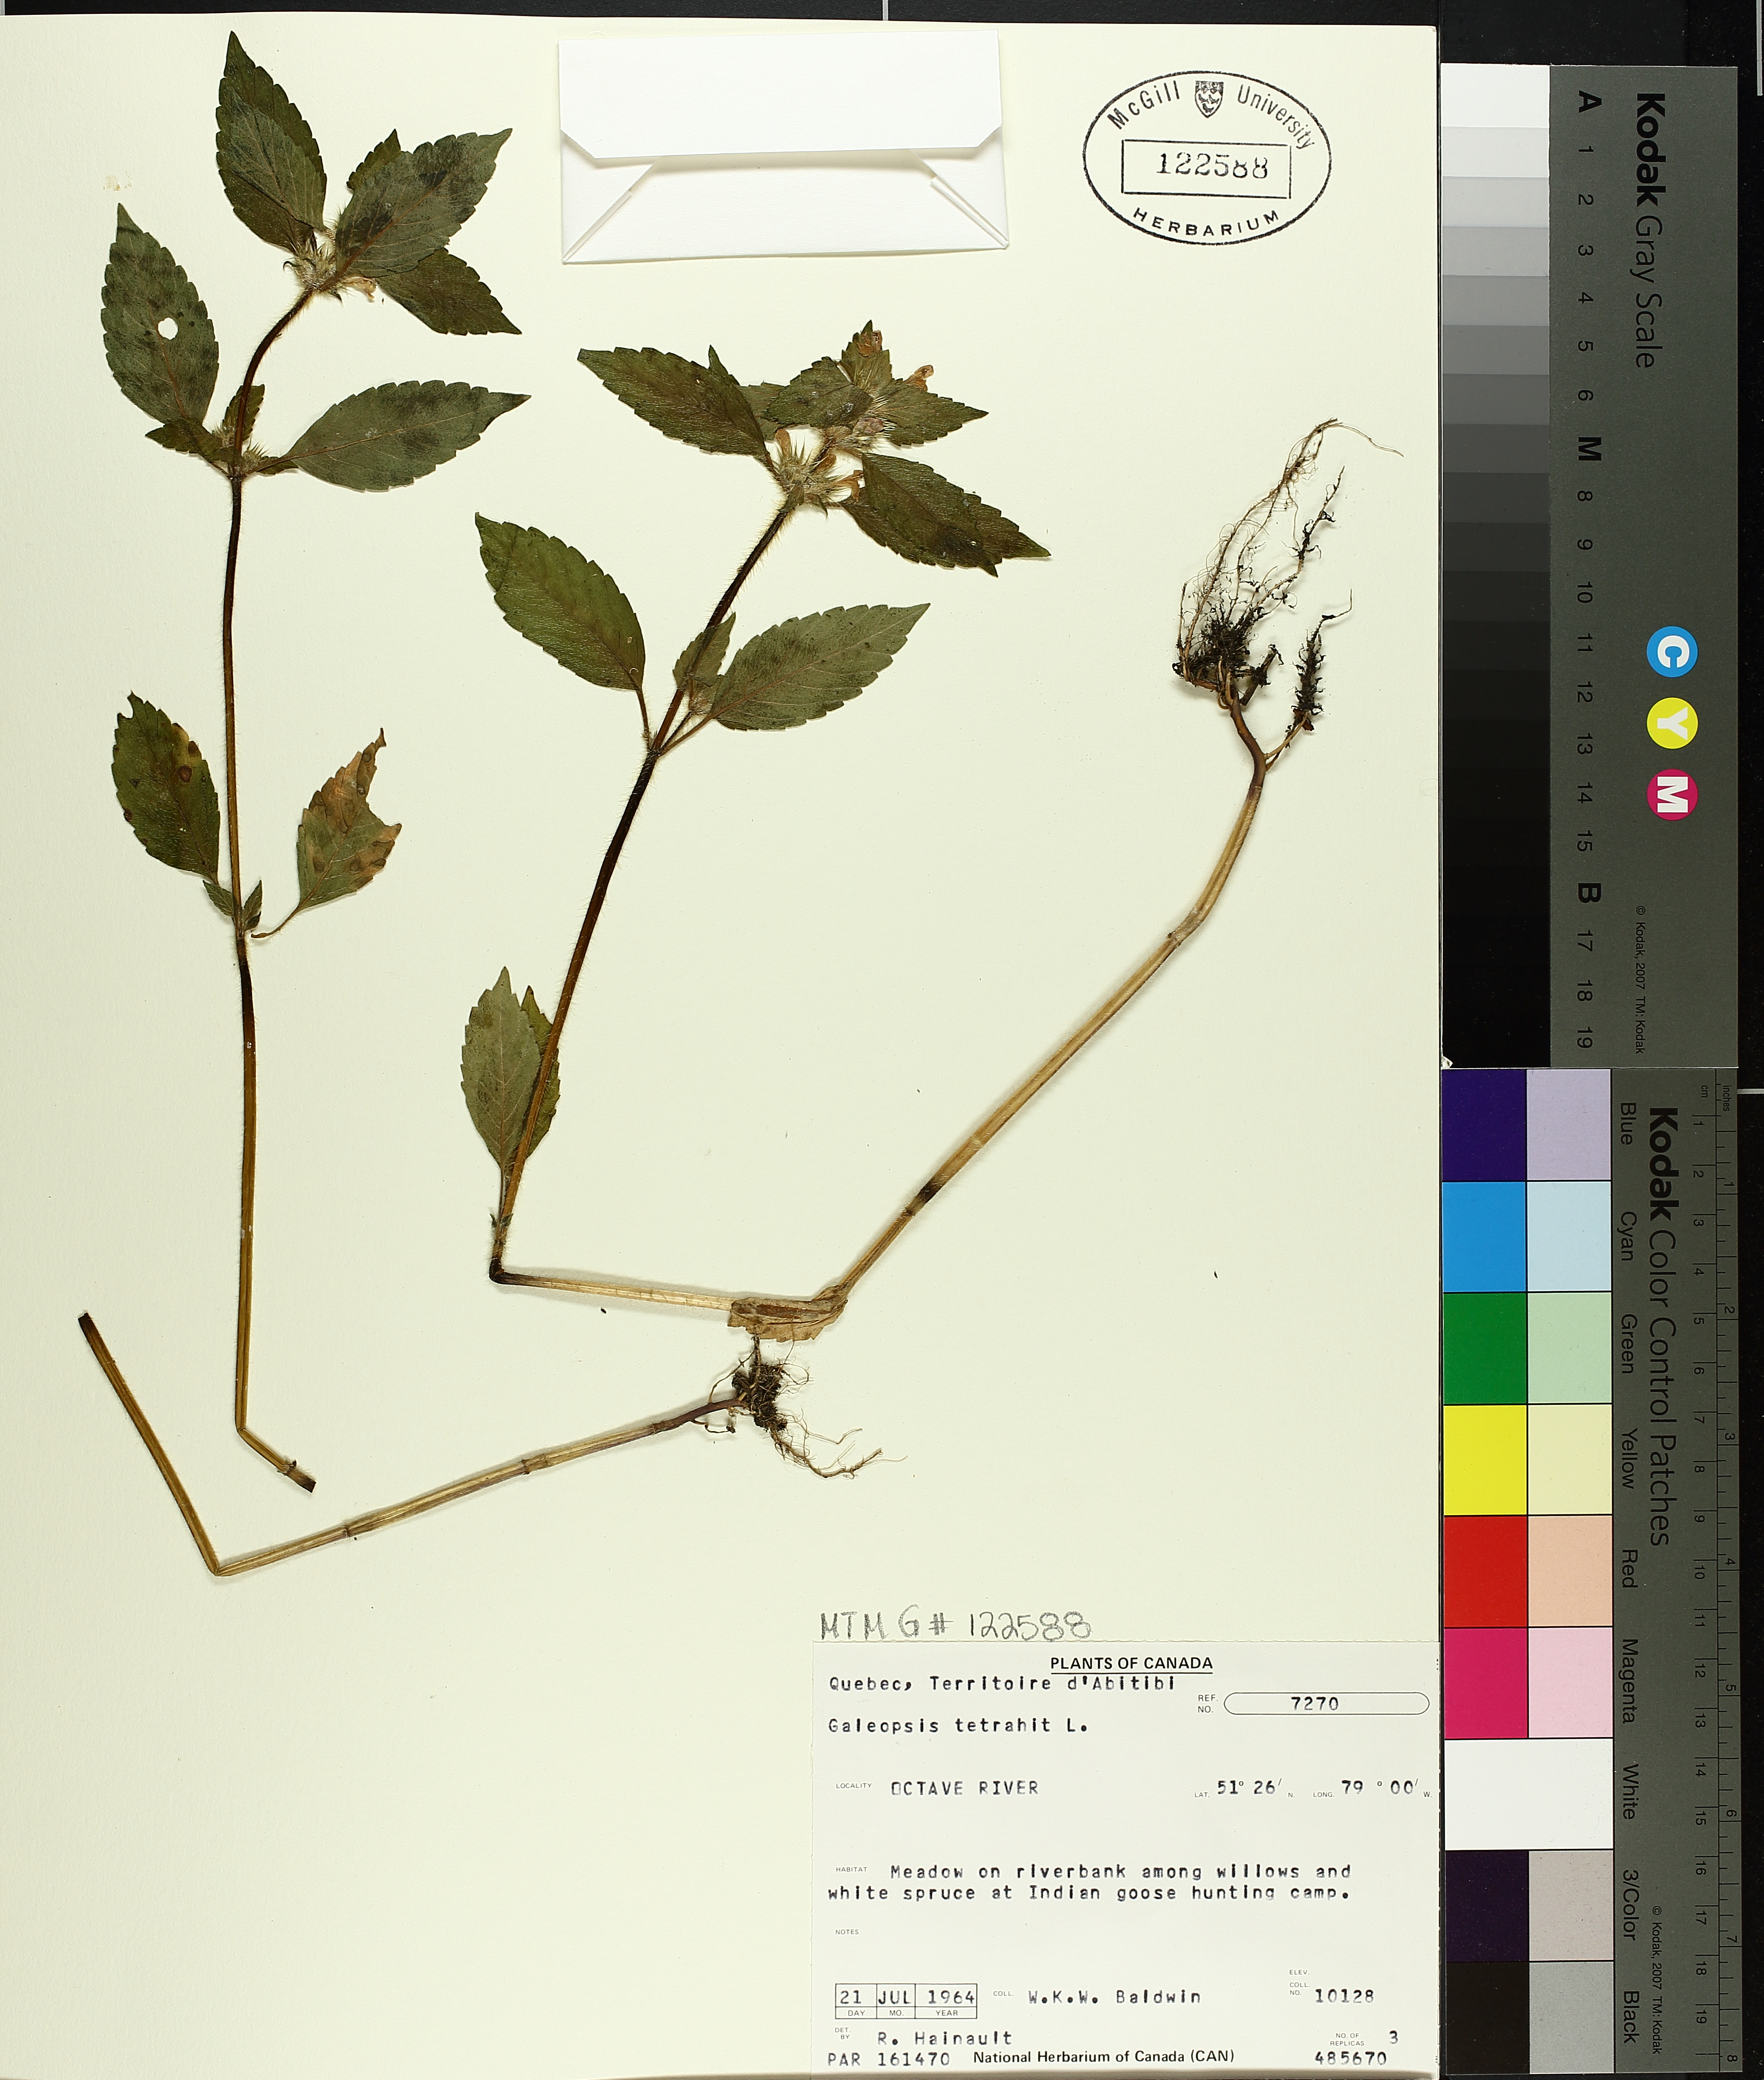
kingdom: Plantae
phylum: Tracheophyta
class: Magnoliopsida
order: Lamiales
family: Lamiaceae
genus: Galeopsis
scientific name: Galeopsis tetrahit
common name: Common hemp-nettle
